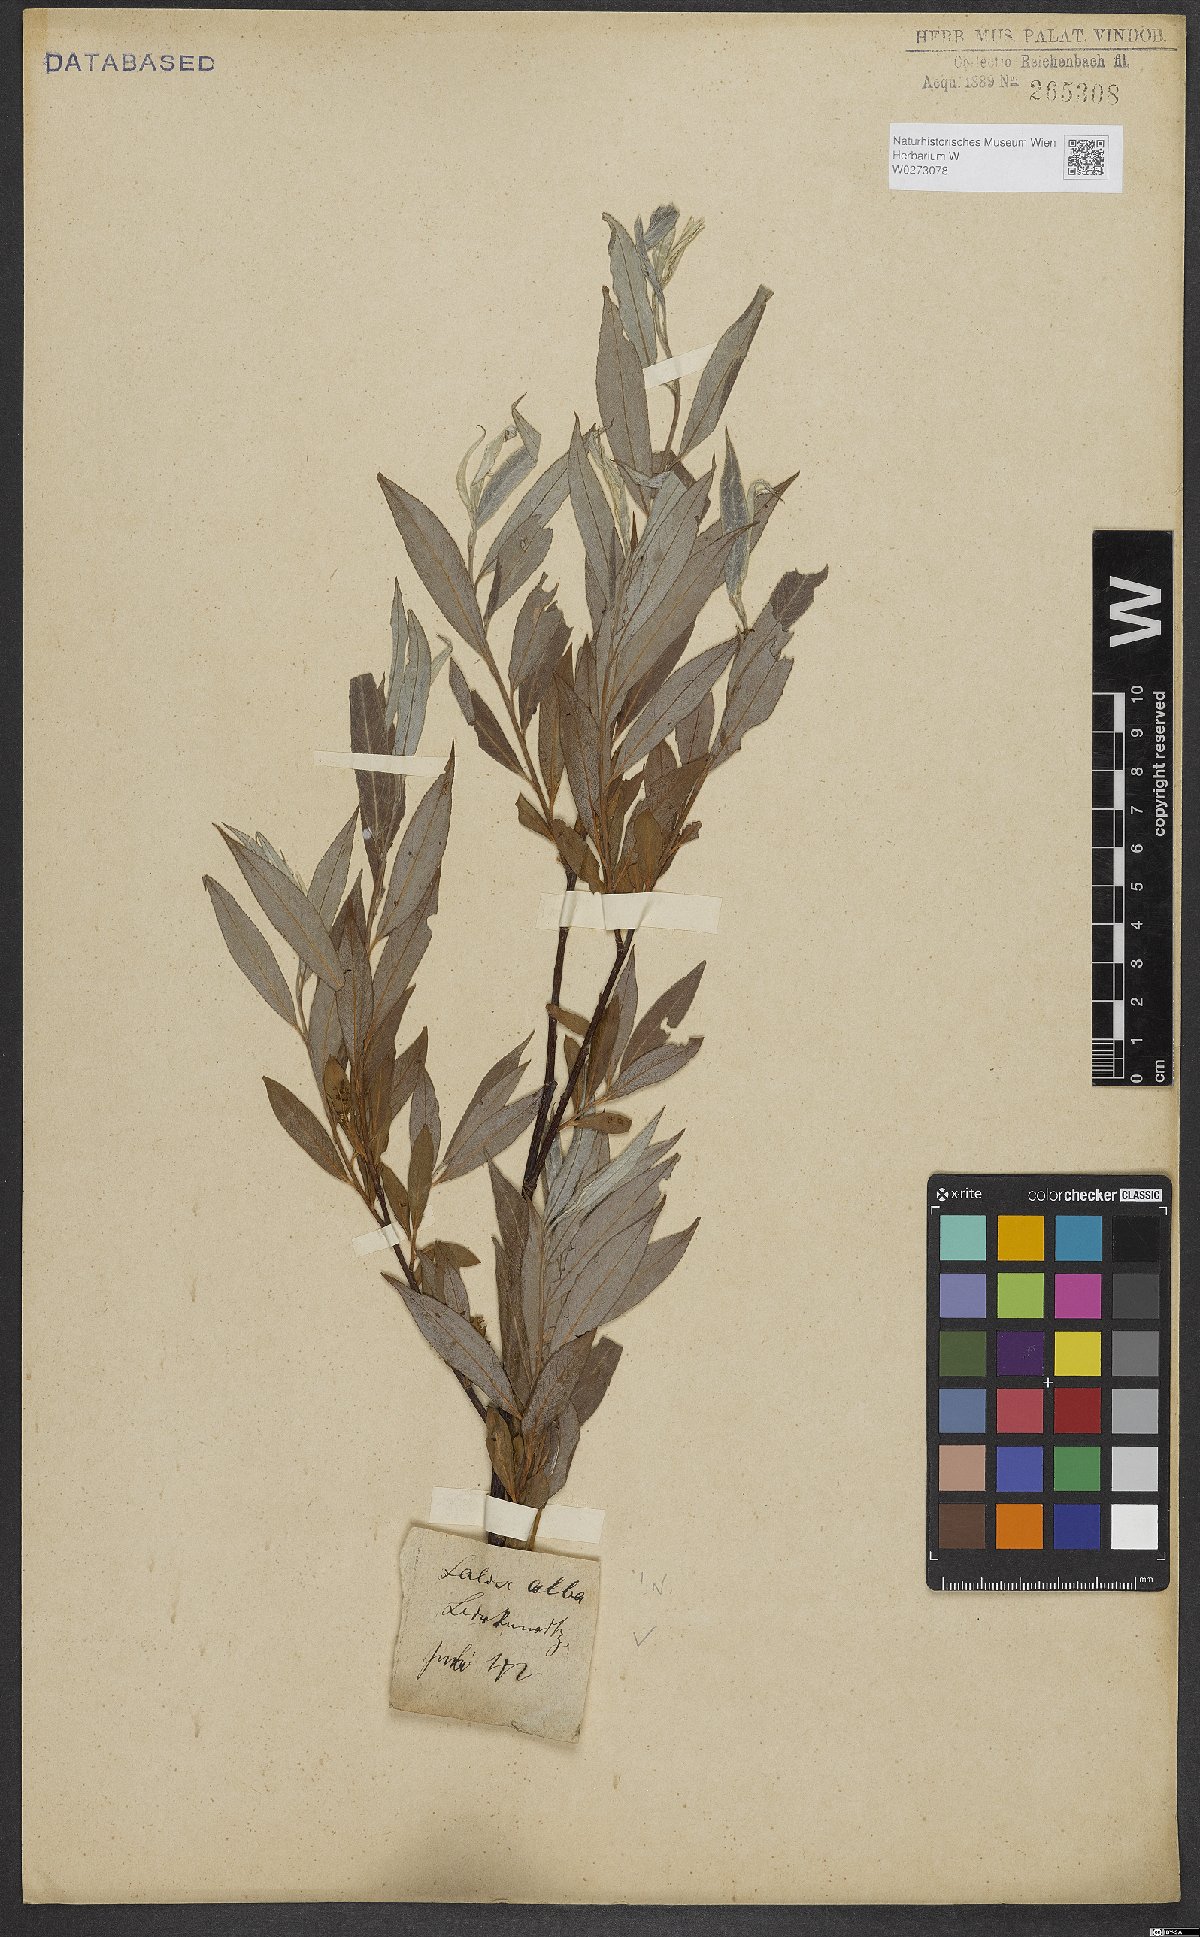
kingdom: Plantae
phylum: Tracheophyta
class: Magnoliopsida
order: Malpighiales
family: Salicaceae
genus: Salix
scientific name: Salix alba
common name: White willow
